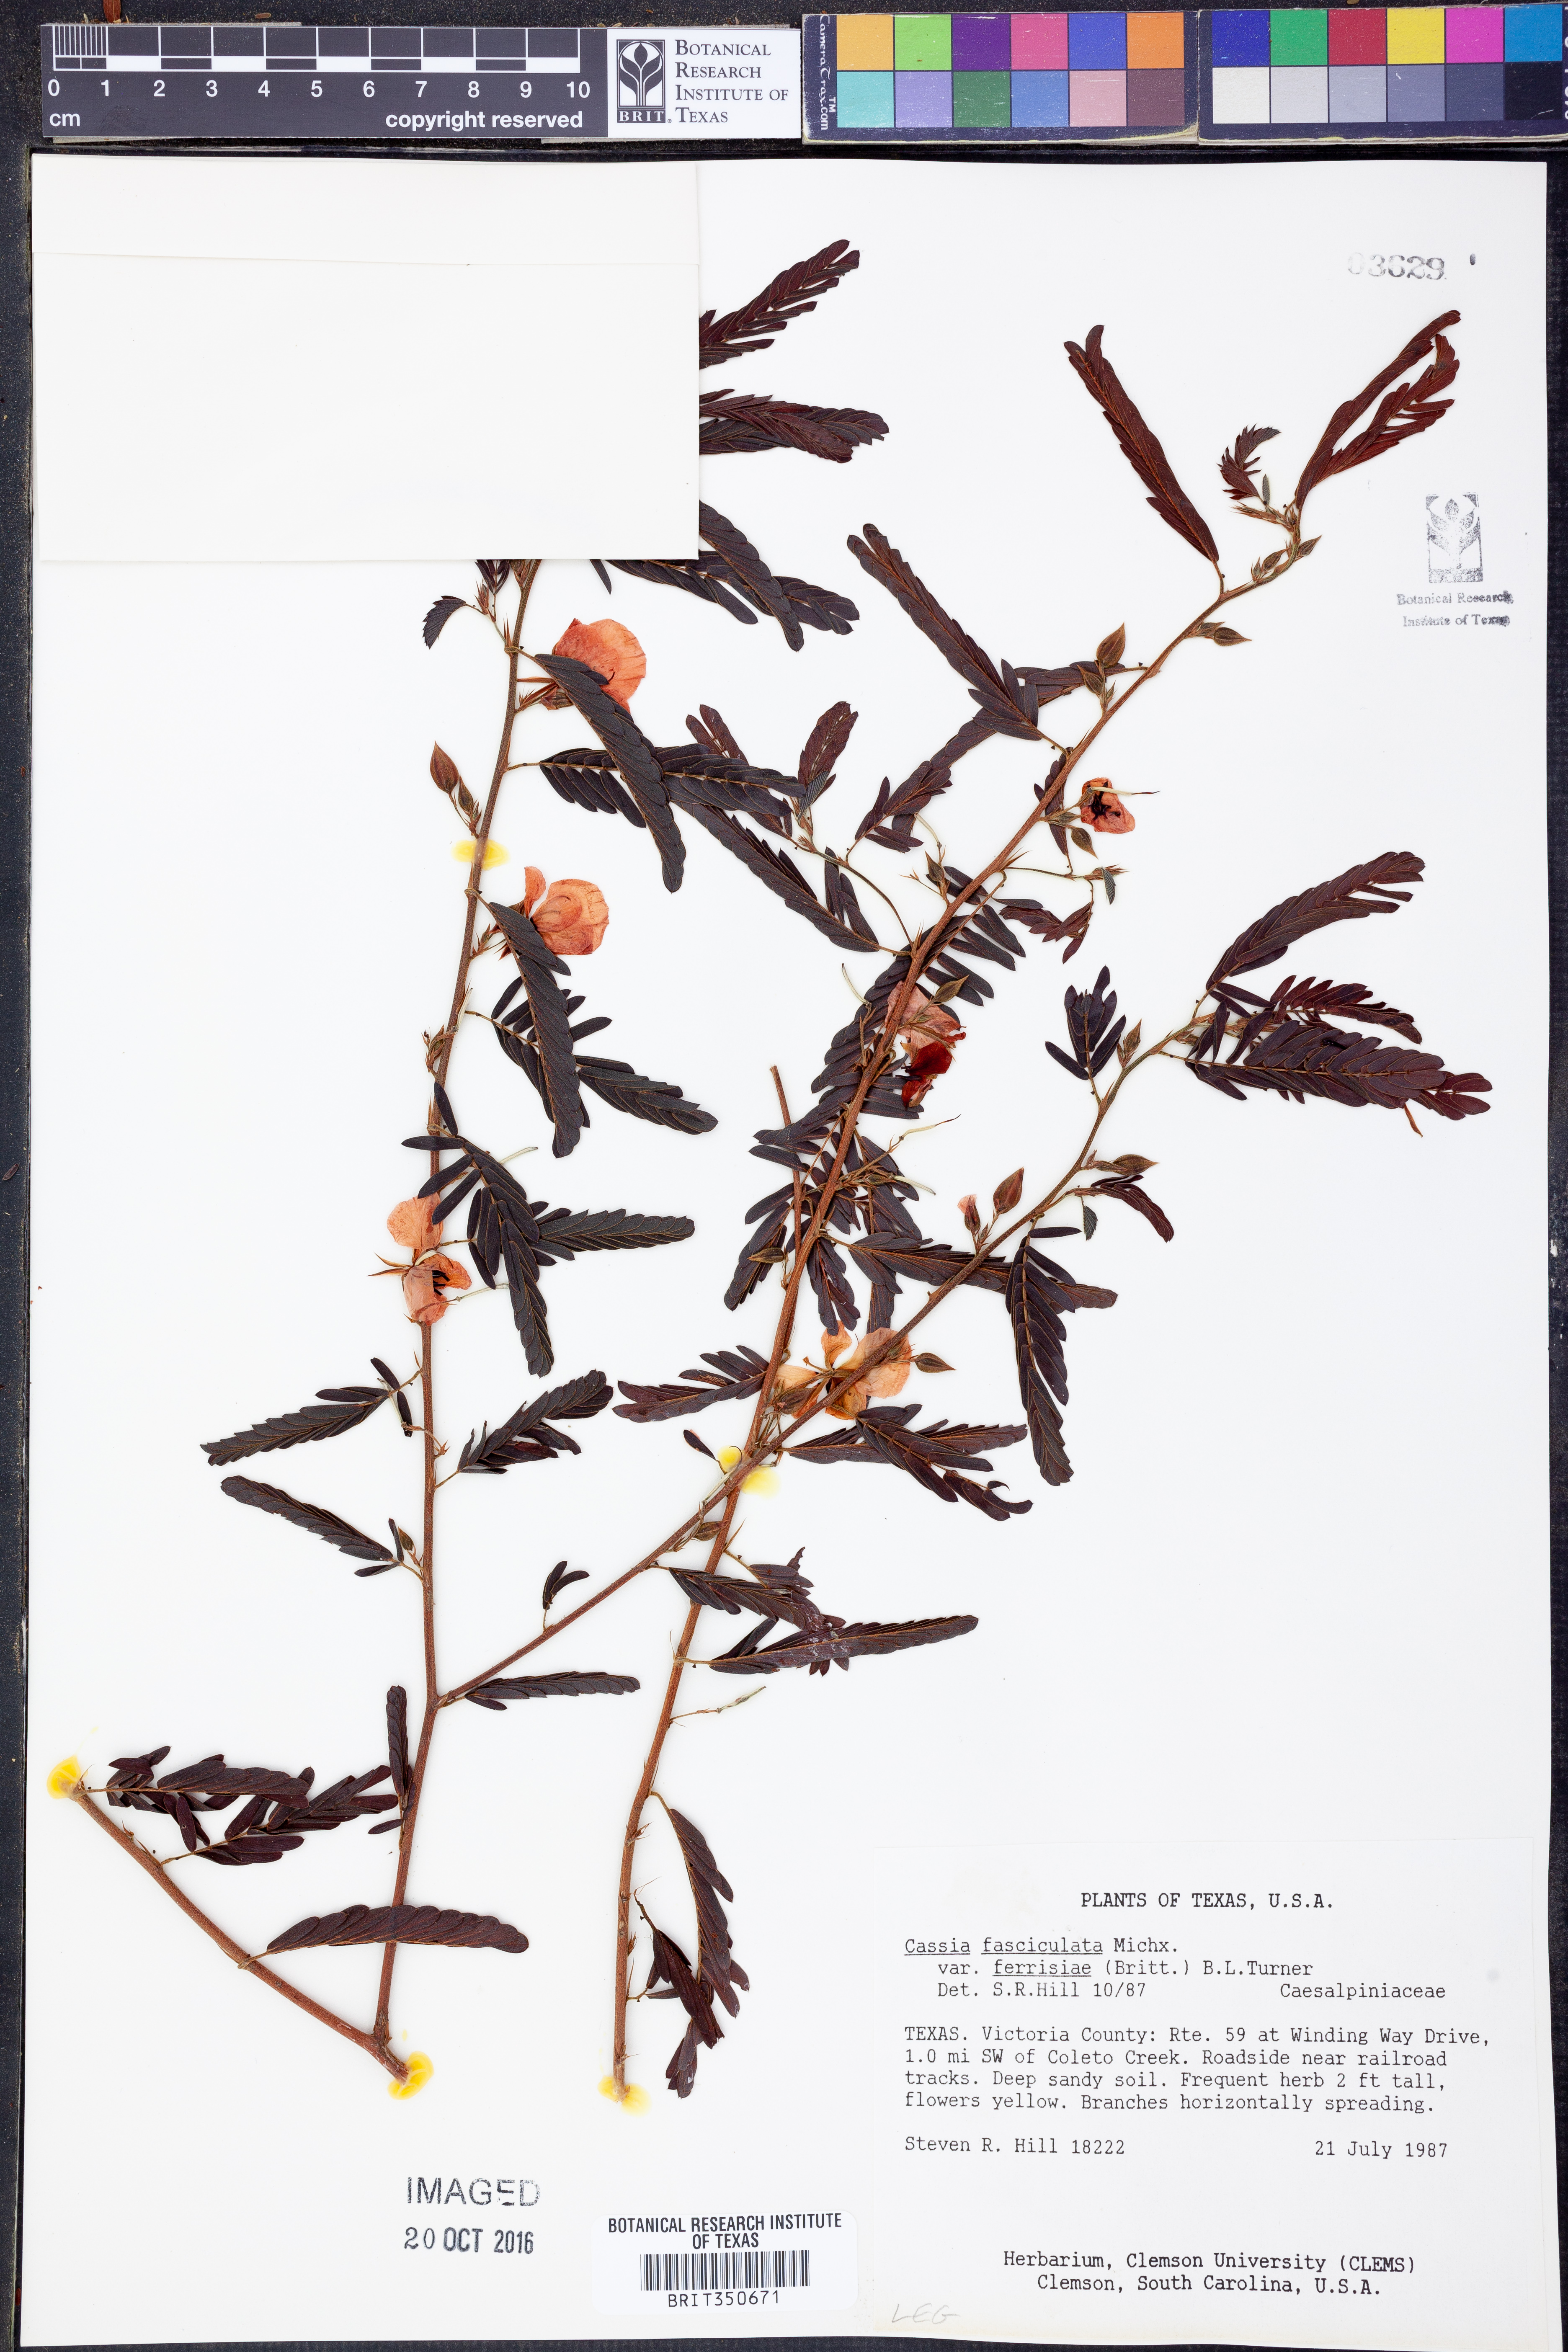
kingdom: Plantae
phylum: Tracheophyta
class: Magnoliopsida
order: Fabales
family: Fabaceae
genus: Chamaecrista
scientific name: Chamaecrista fasciculata
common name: Golden cassia
